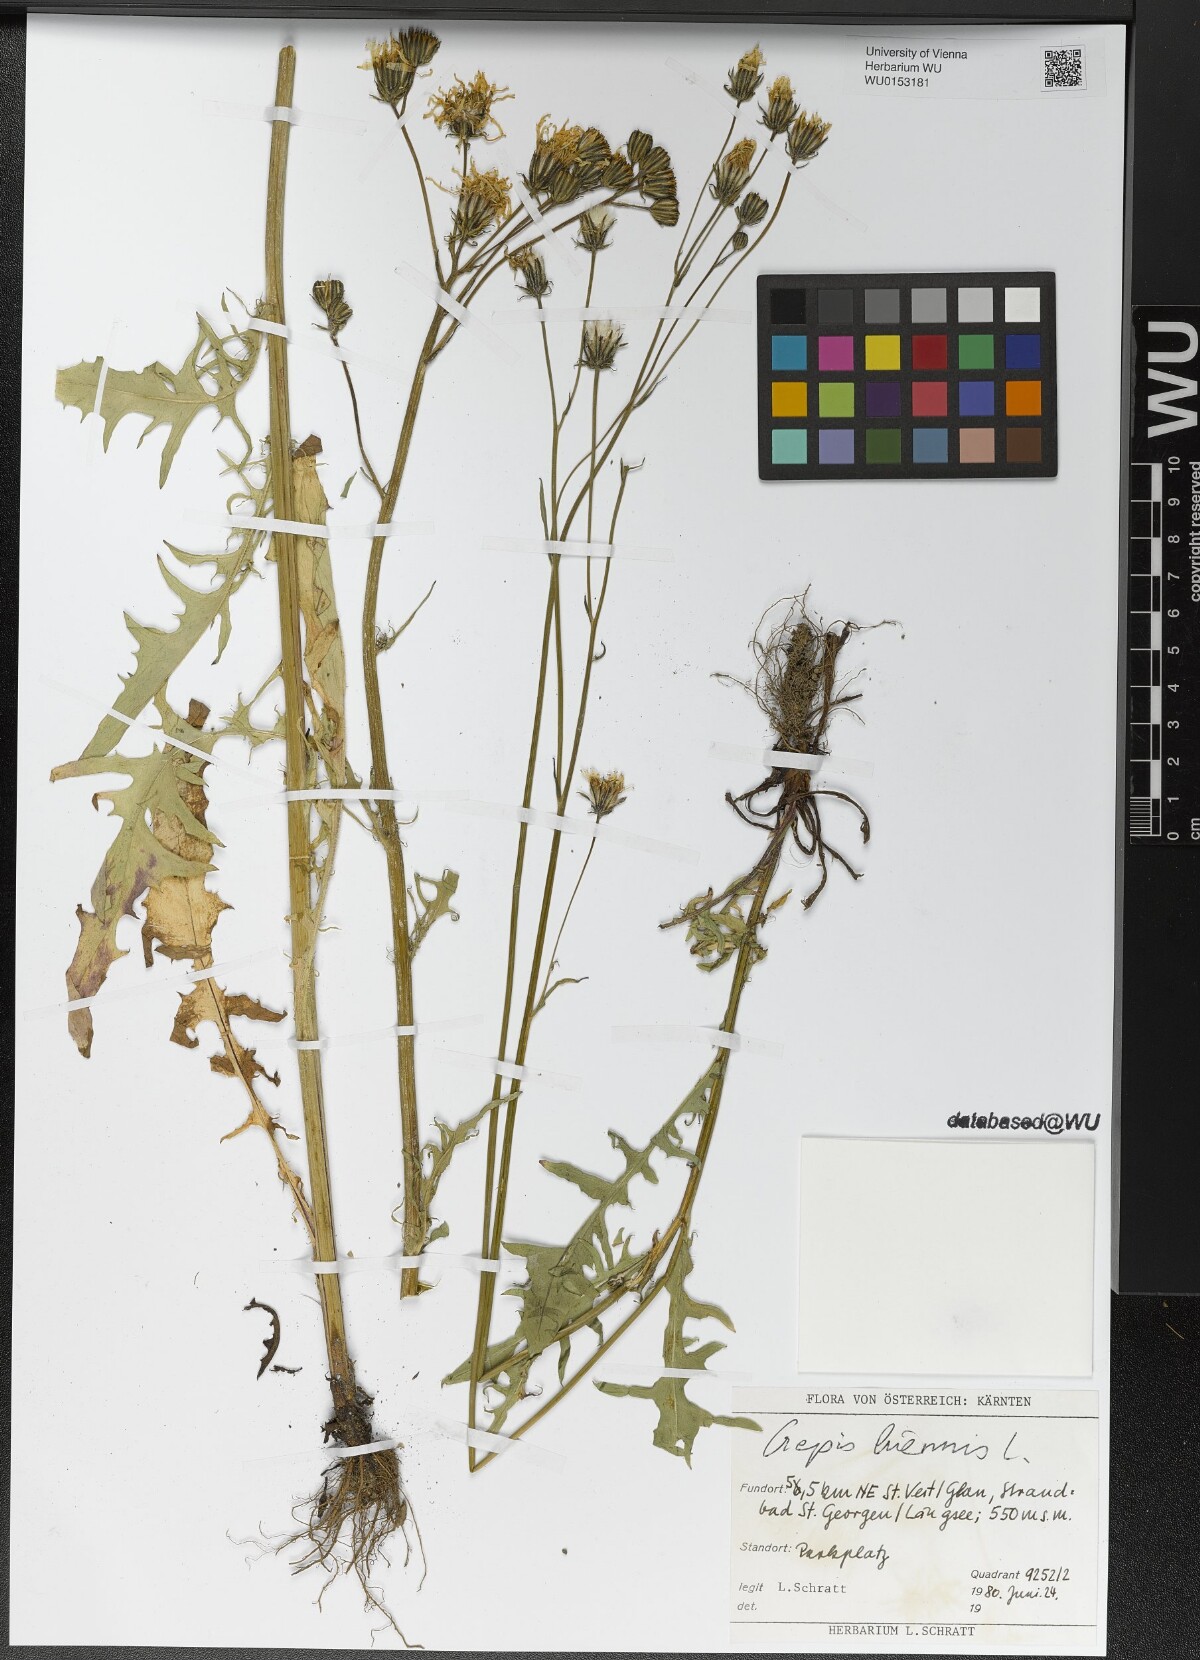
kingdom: Plantae
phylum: Tracheophyta
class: Magnoliopsida
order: Asterales
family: Asteraceae
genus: Crepis
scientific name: Crepis biennis
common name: Rough hawk's-beard
